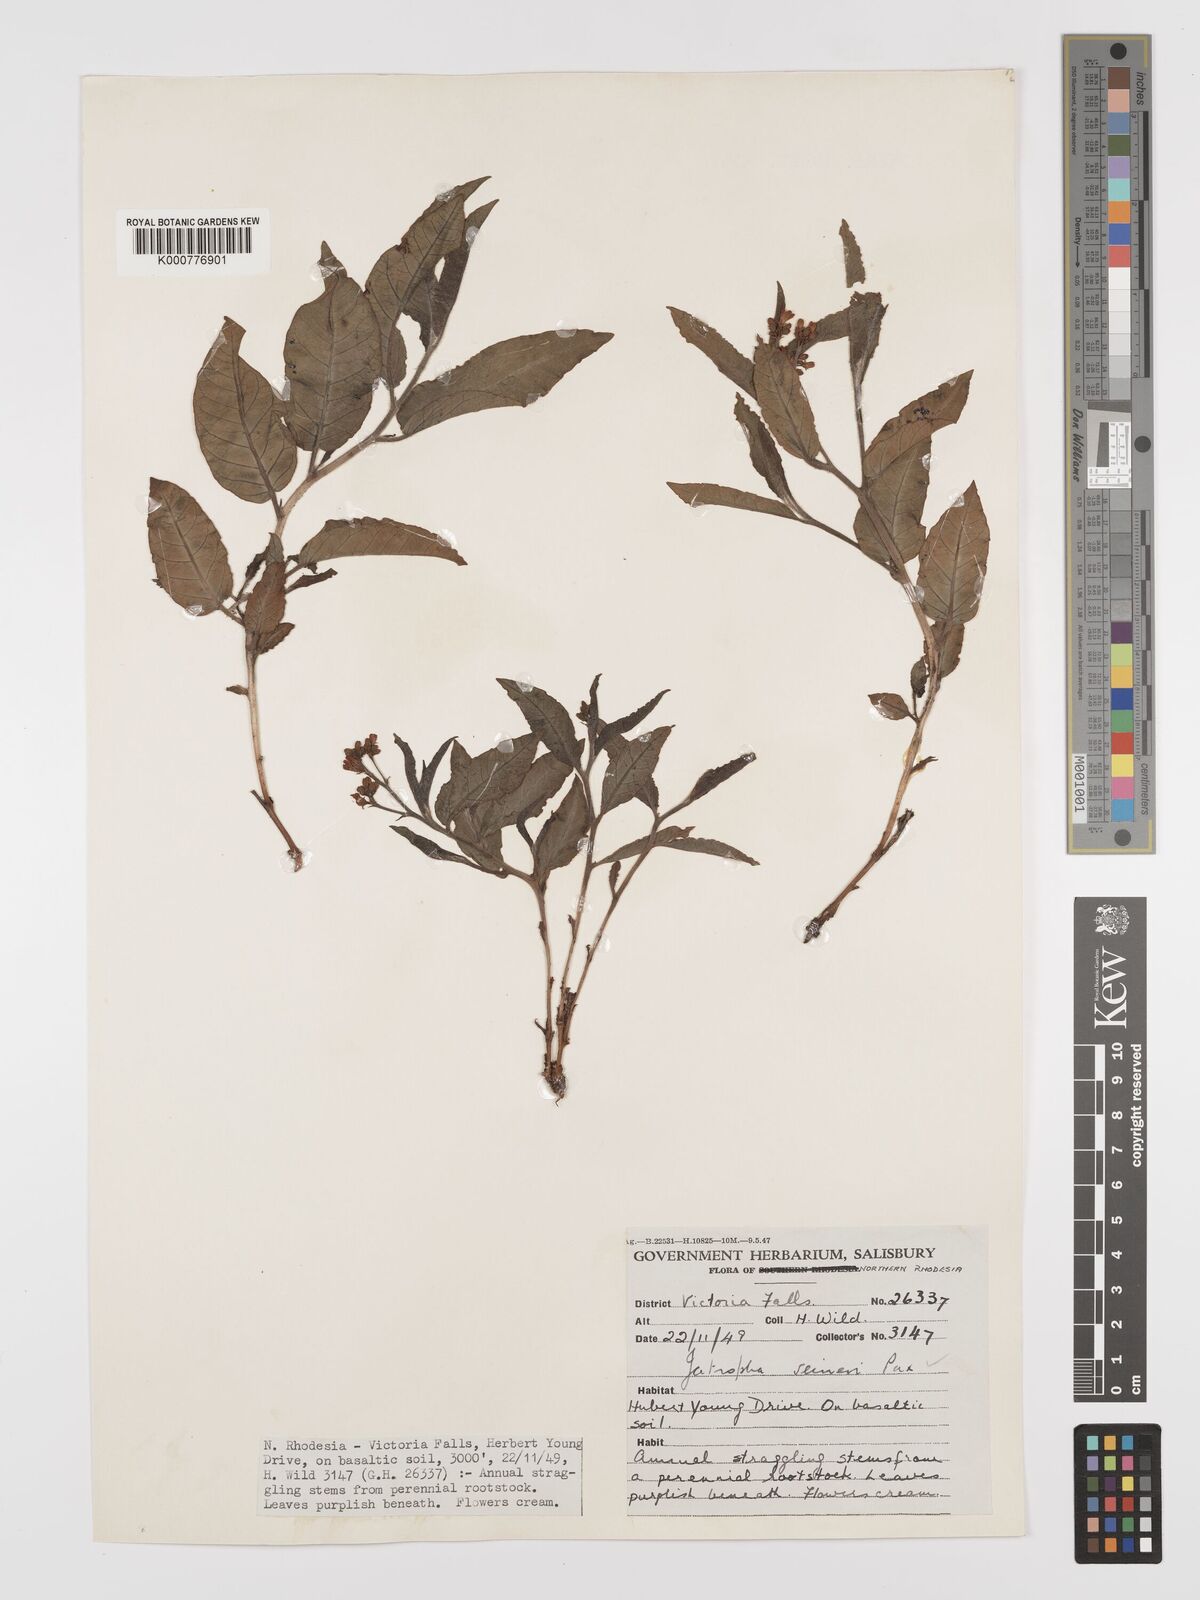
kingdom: Plantae
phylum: Tracheophyta
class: Magnoliopsida
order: Malpighiales
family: Euphorbiaceae
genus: Jatropha
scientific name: Jatropha seineri
